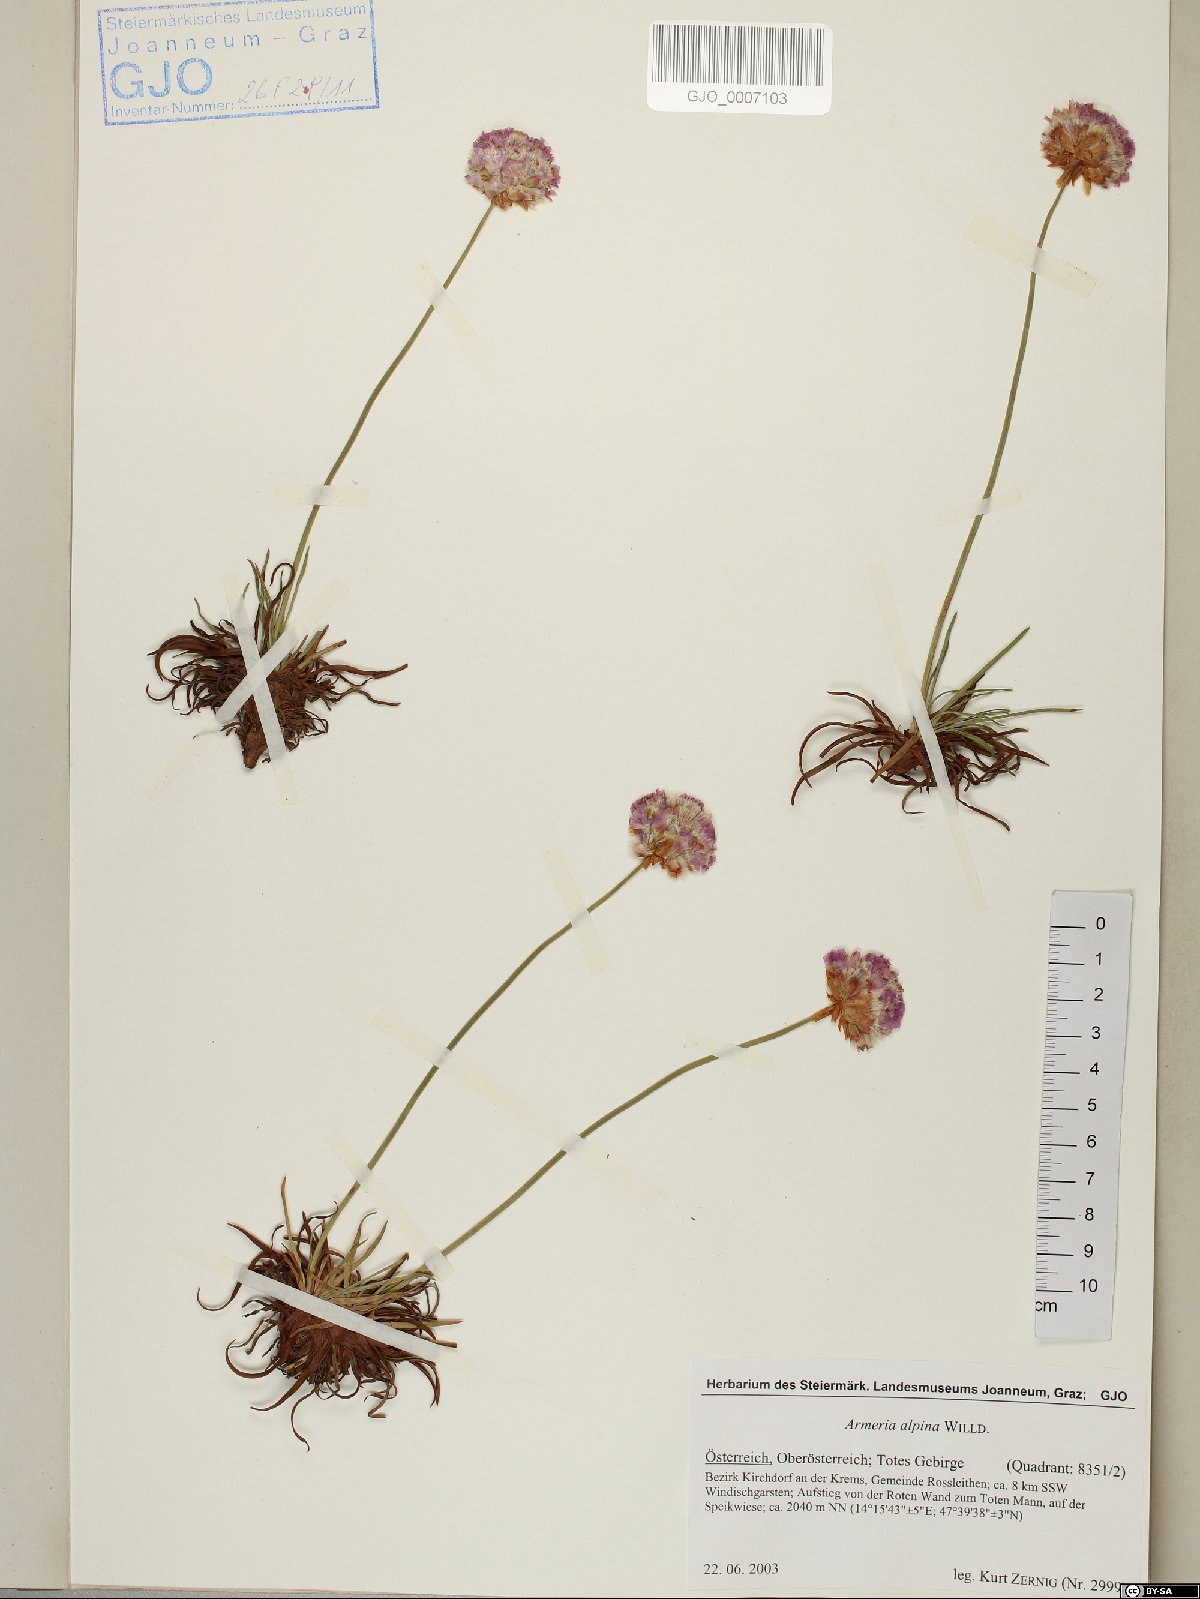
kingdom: Plantae
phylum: Tracheophyta
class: Magnoliopsida
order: Caryophyllales
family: Plumbaginaceae
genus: Armeria
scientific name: Armeria alpina
